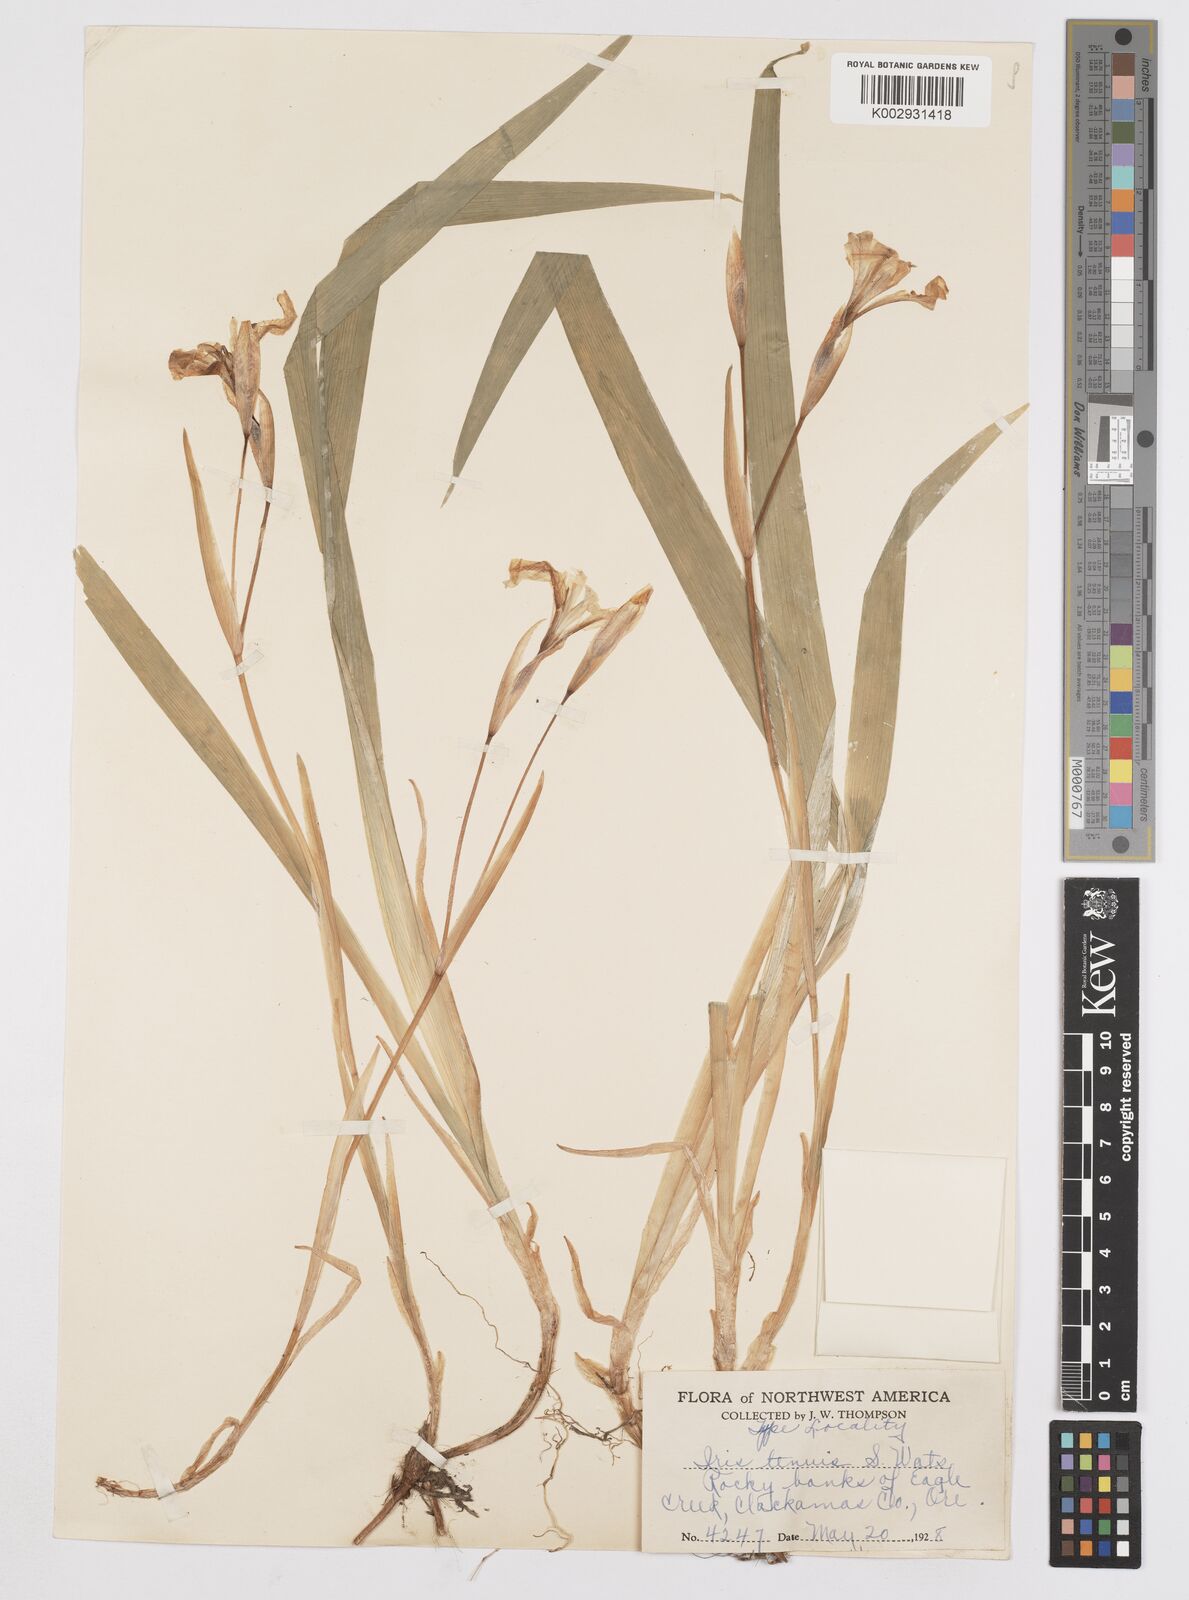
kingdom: Plantae
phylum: Tracheophyta
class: Liliopsida
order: Asparagales
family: Iridaceae
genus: Iris
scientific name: Iris tenuis
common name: Clackamas iris
